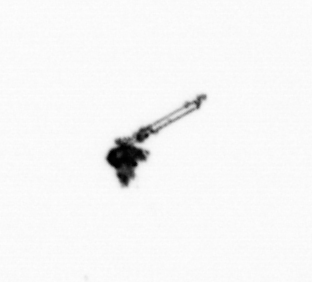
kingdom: Animalia
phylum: Arthropoda
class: Copepoda
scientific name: Copepoda
